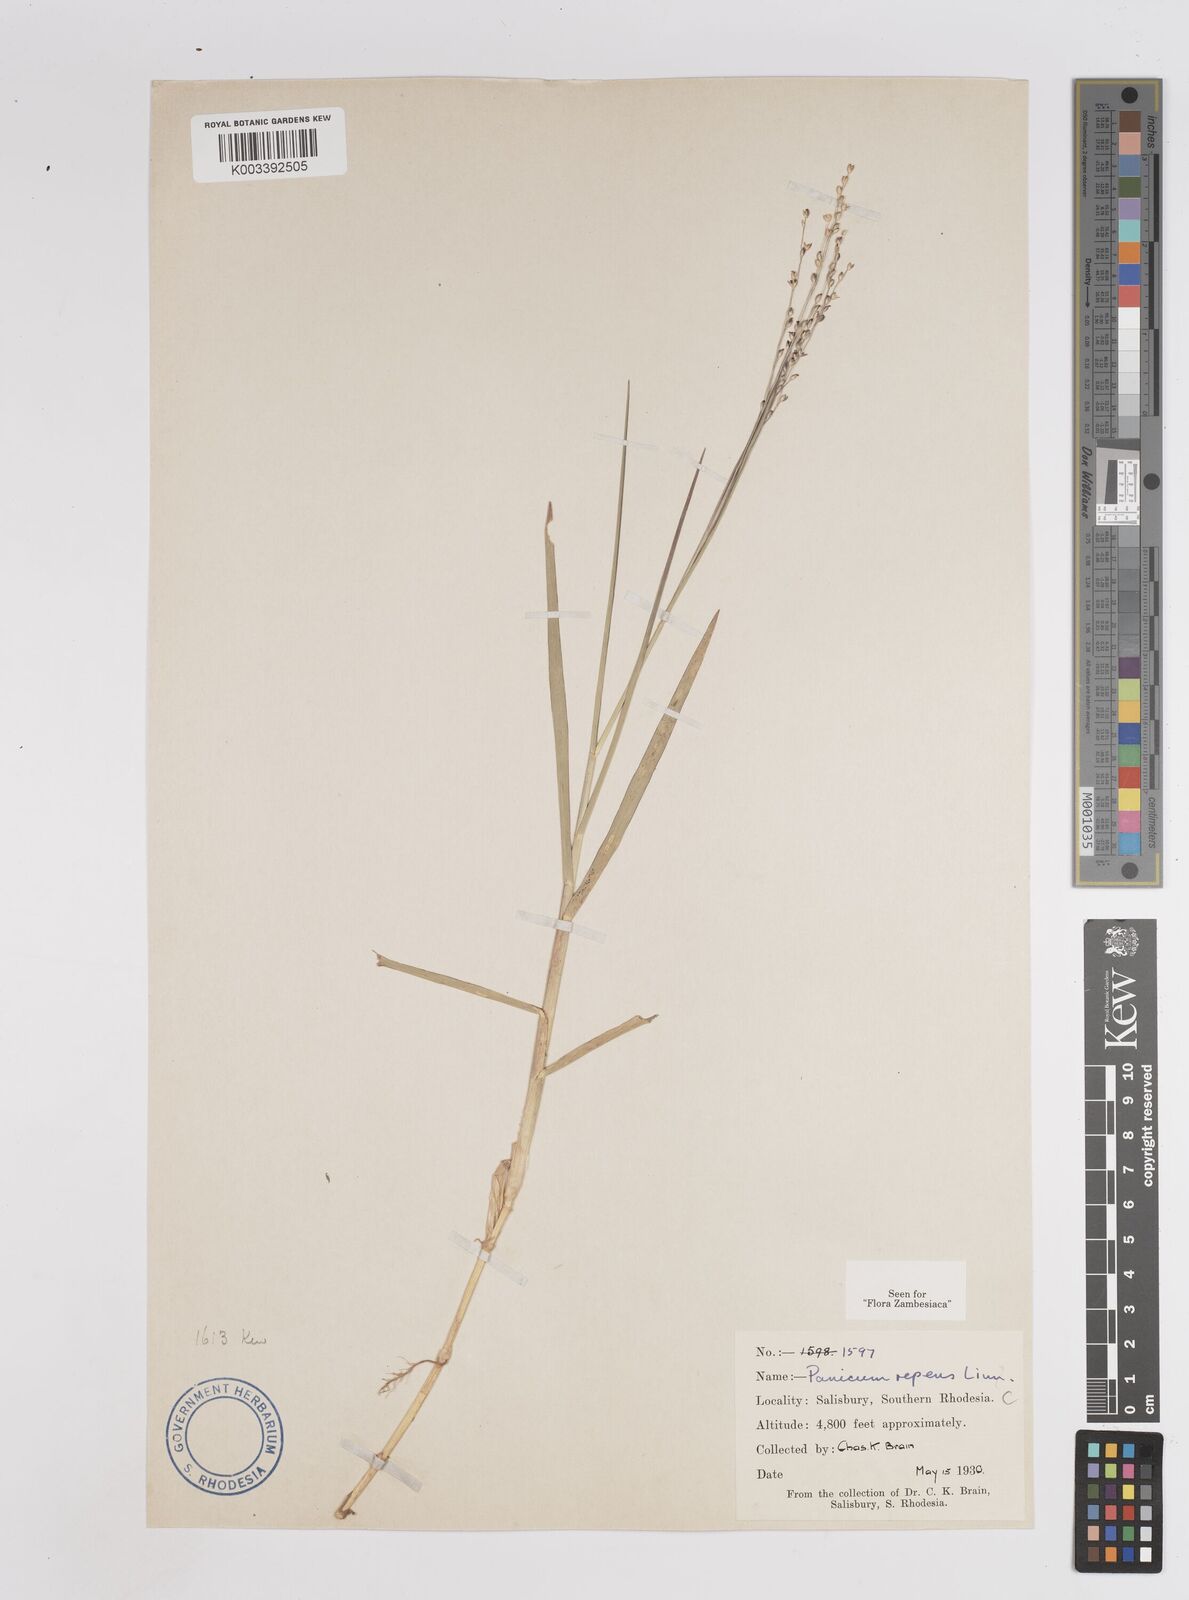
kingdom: Plantae
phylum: Tracheophyta
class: Liliopsida
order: Poales
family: Poaceae
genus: Panicum
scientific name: Panicum repens
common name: Torpedo grass
